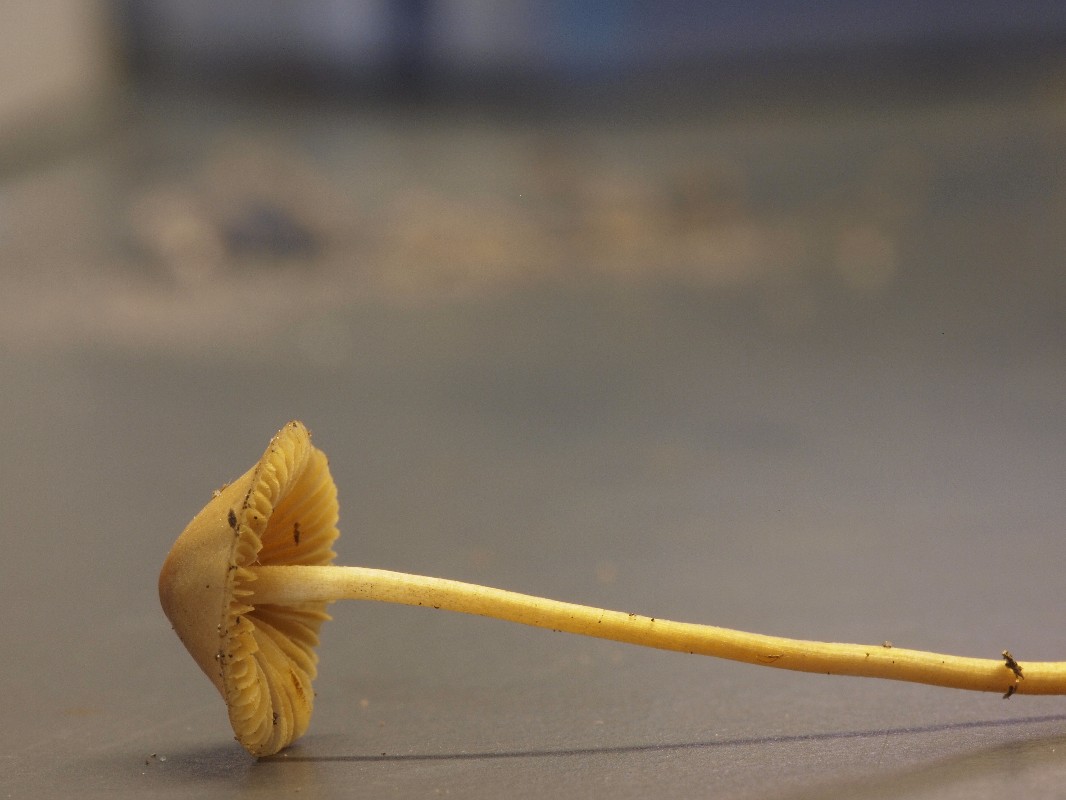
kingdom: Fungi
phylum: Basidiomycota
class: Agaricomycetes
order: Agaricales
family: Bolbitiaceae
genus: Conocybe
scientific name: Conocybe
